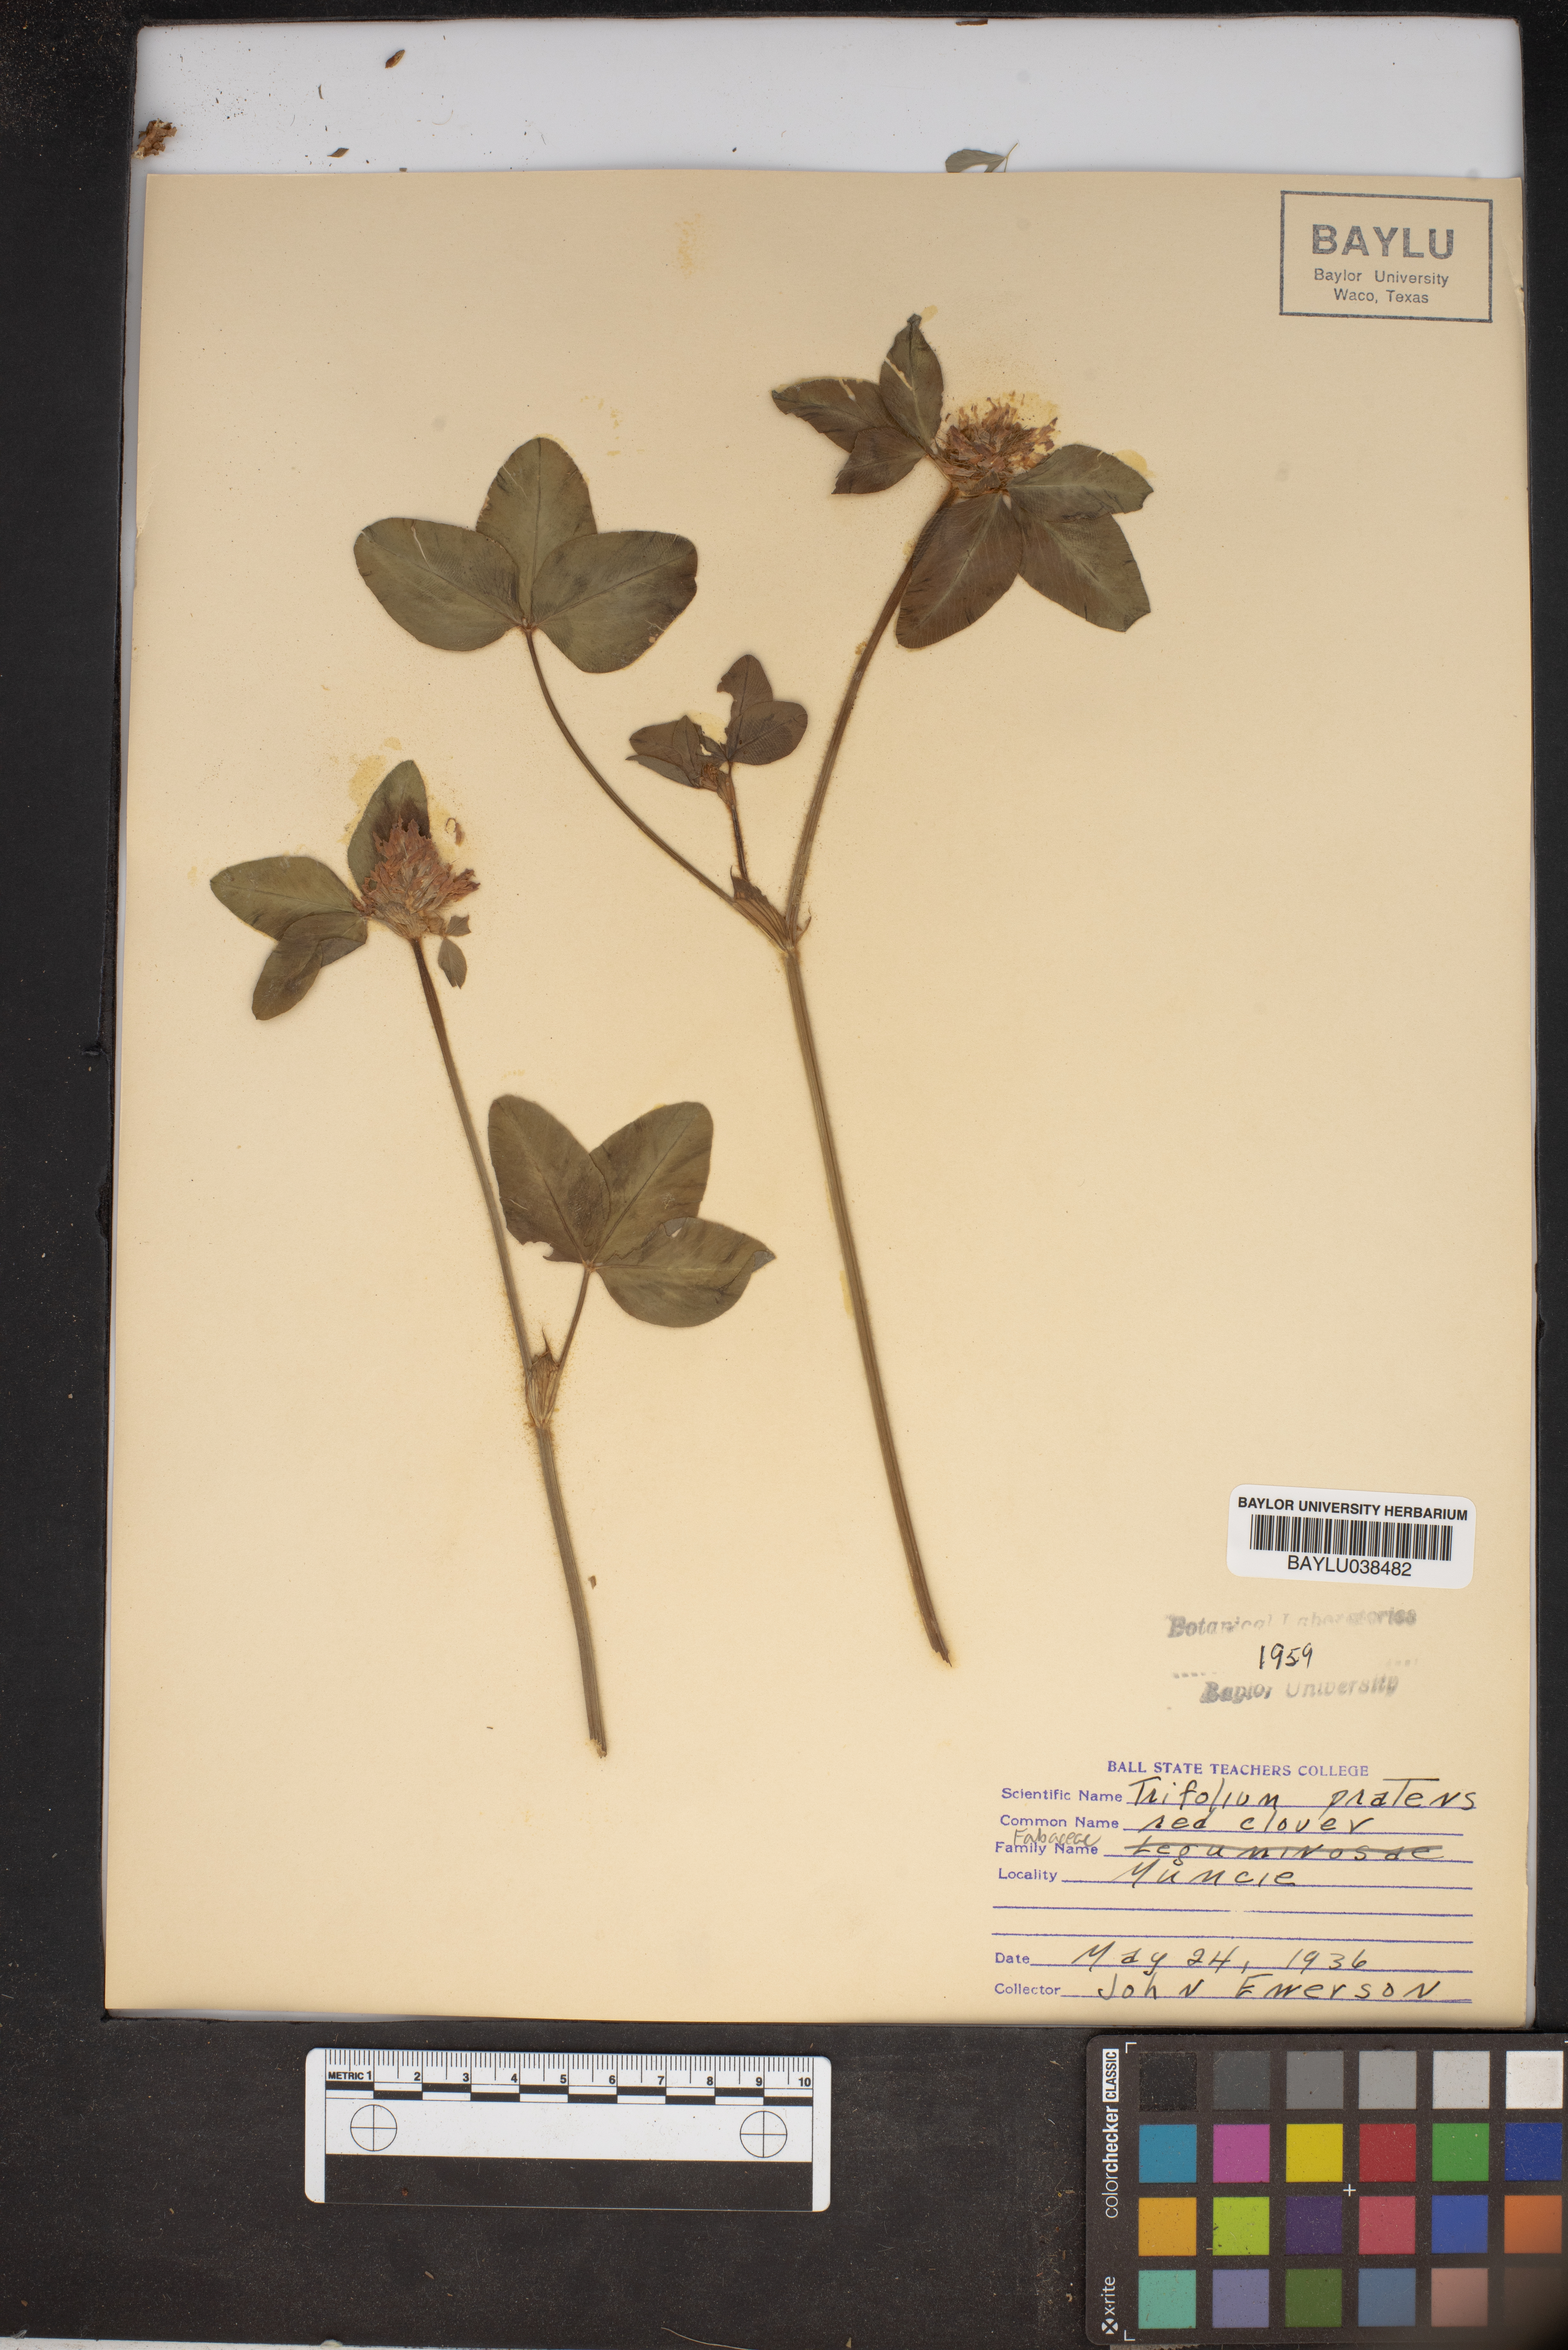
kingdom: Plantae
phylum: Tracheophyta
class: Magnoliopsida
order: Fabales
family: Fabaceae
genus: Trifolium
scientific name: Trifolium pratense
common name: Red clover
